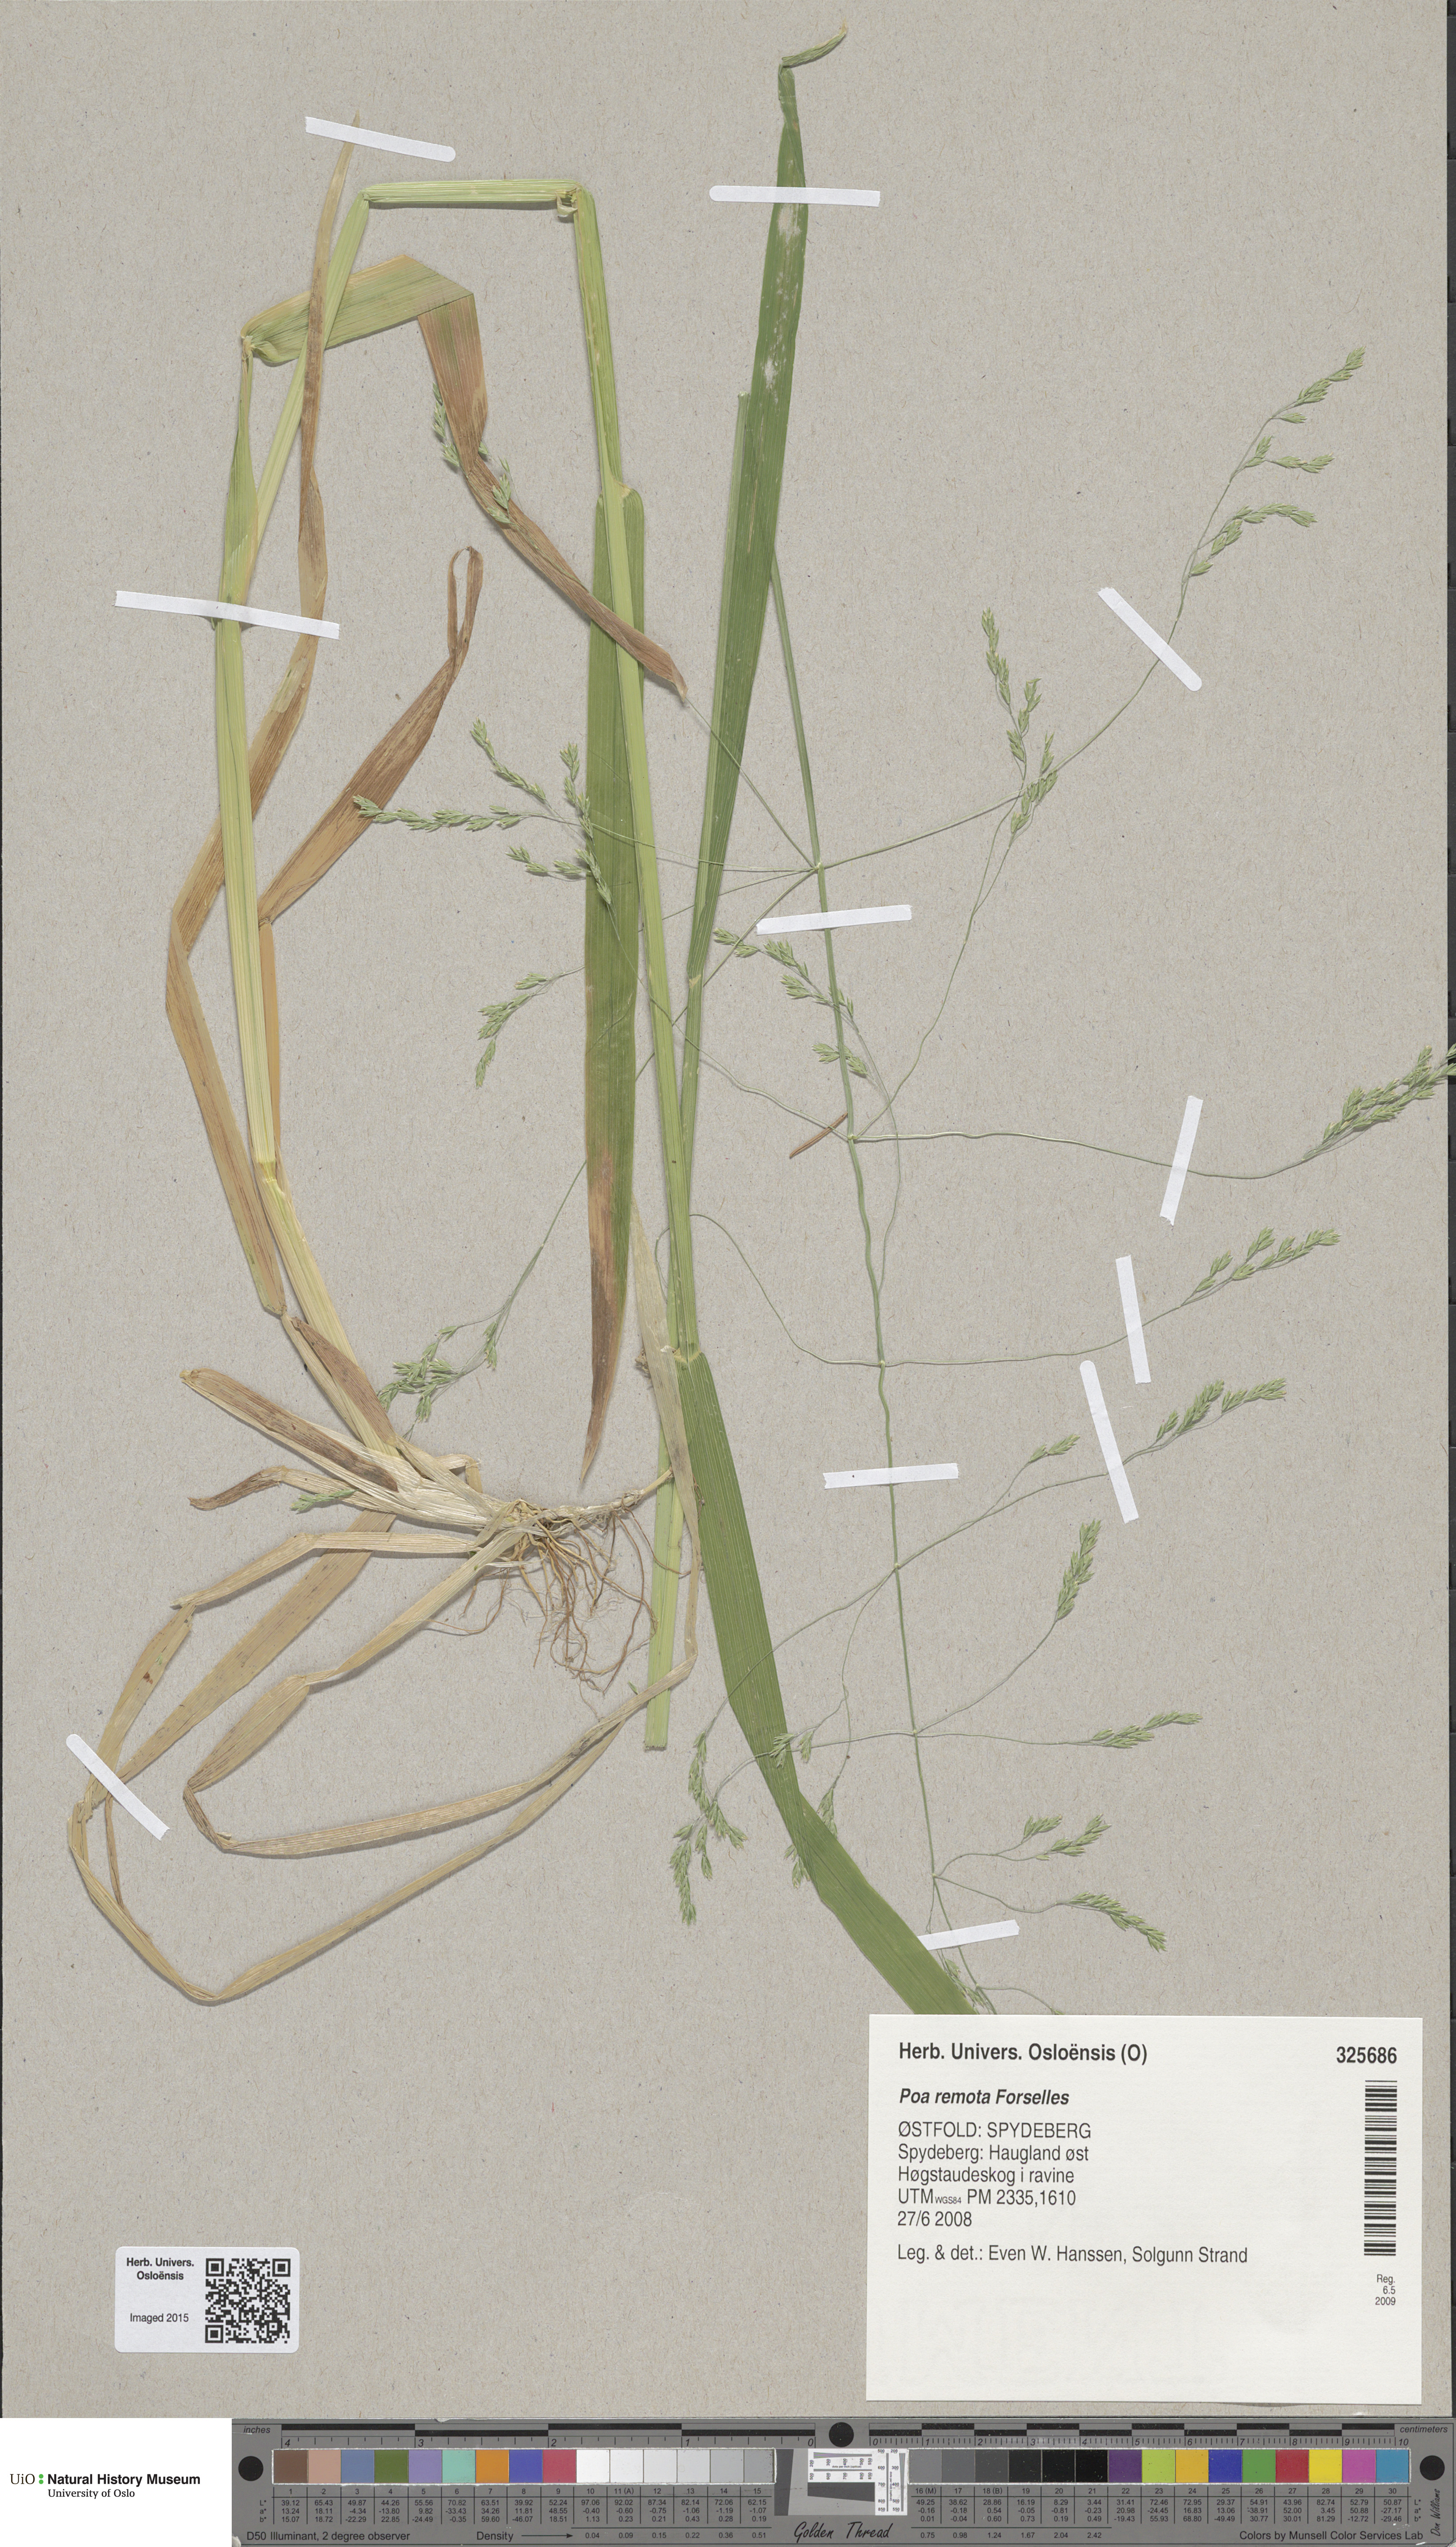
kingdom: Plantae
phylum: Tracheophyta
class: Liliopsida
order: Poales
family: Poaceae
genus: Poa
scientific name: Poa remota
